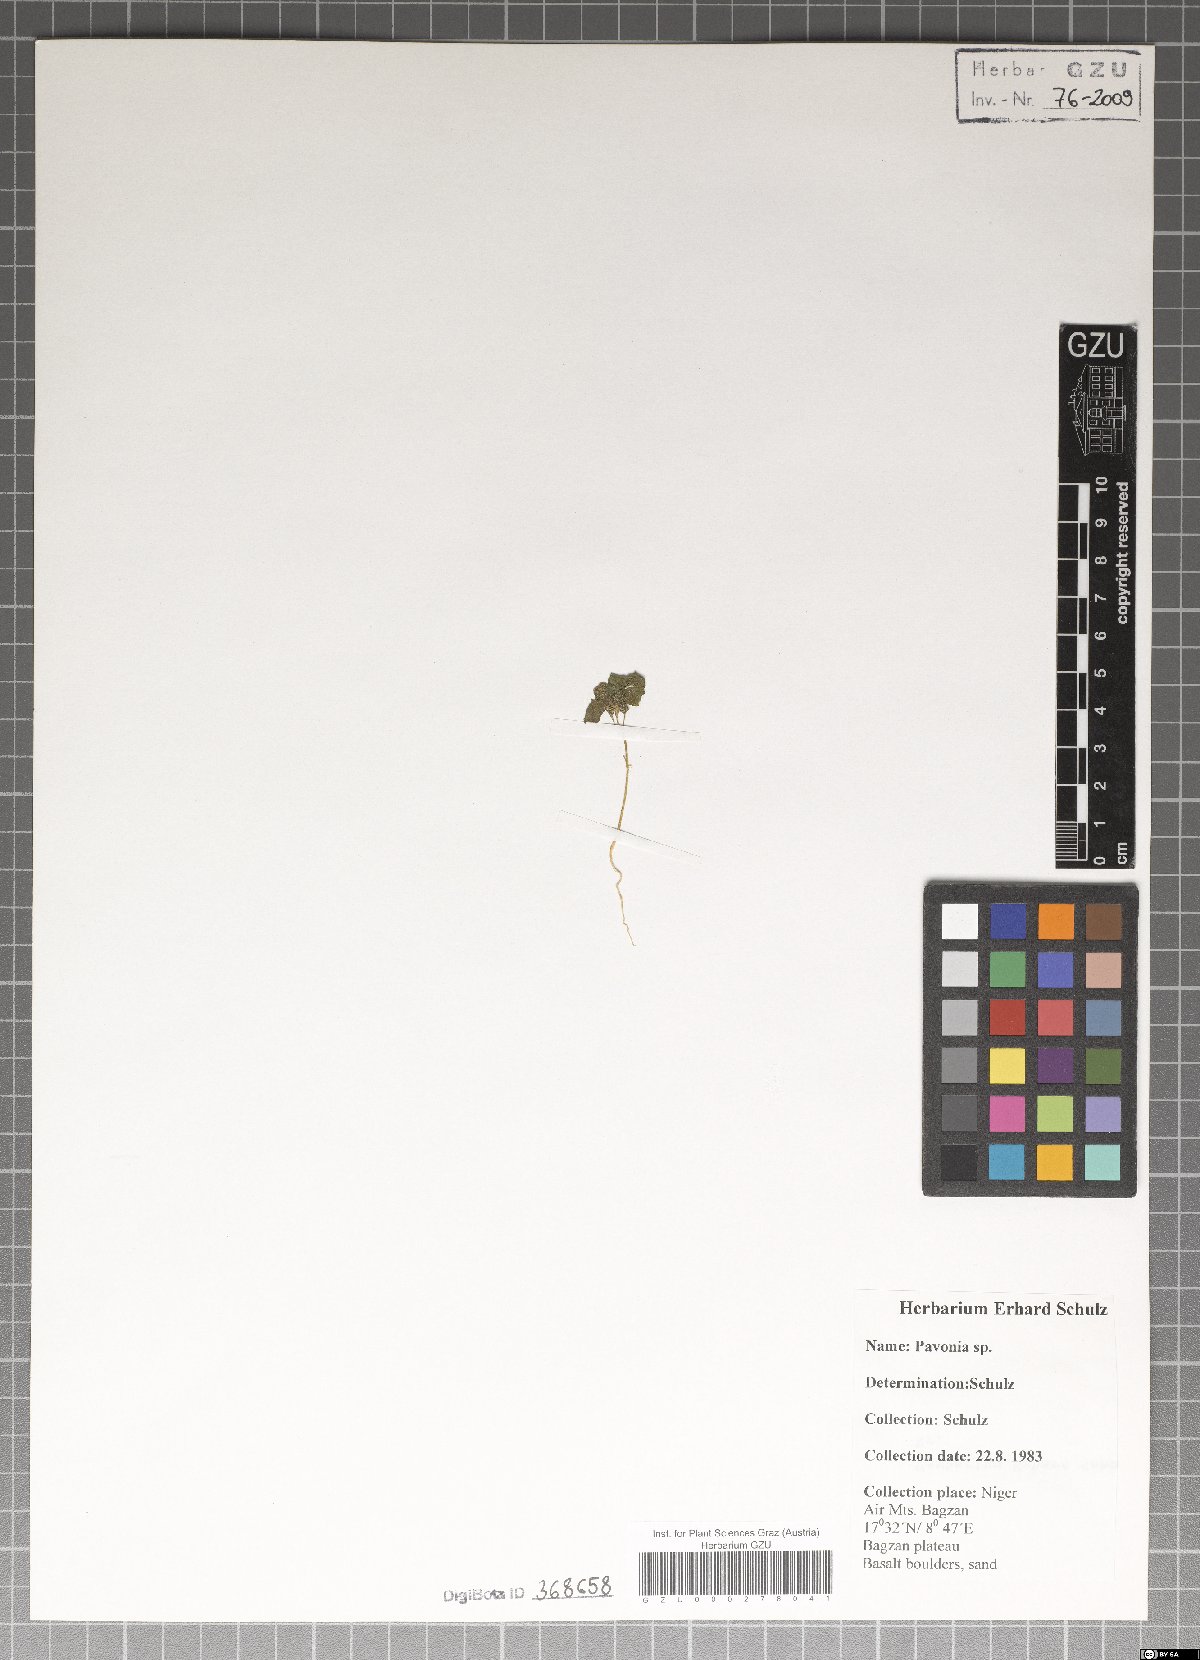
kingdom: Plantae
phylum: Tracheophyta
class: Magnoliopsida
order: Malvales
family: Malvaceae
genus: Pavonia
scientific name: Pavonia
